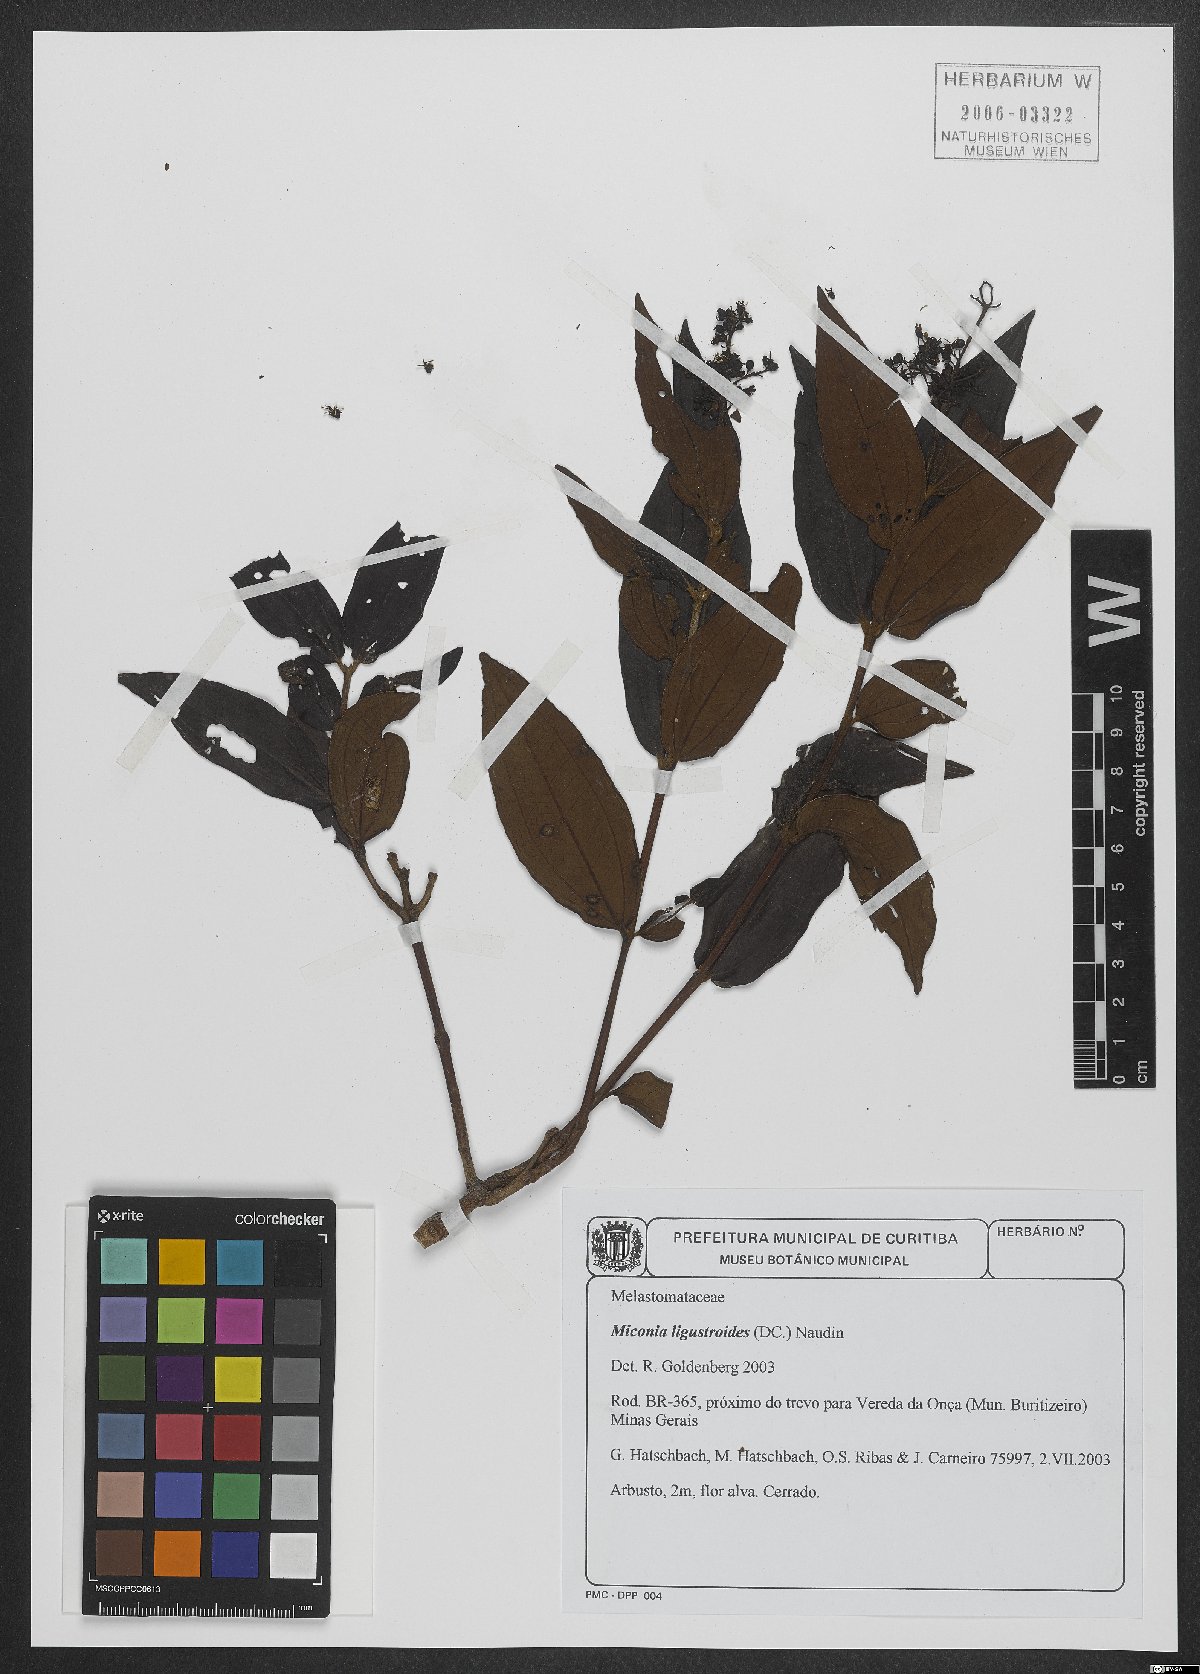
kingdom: Plantae
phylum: Tracheophyta
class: Magnoliopsida
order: Myrtales
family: Melastomataceae
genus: Miconia
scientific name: Miconia ligustroides
